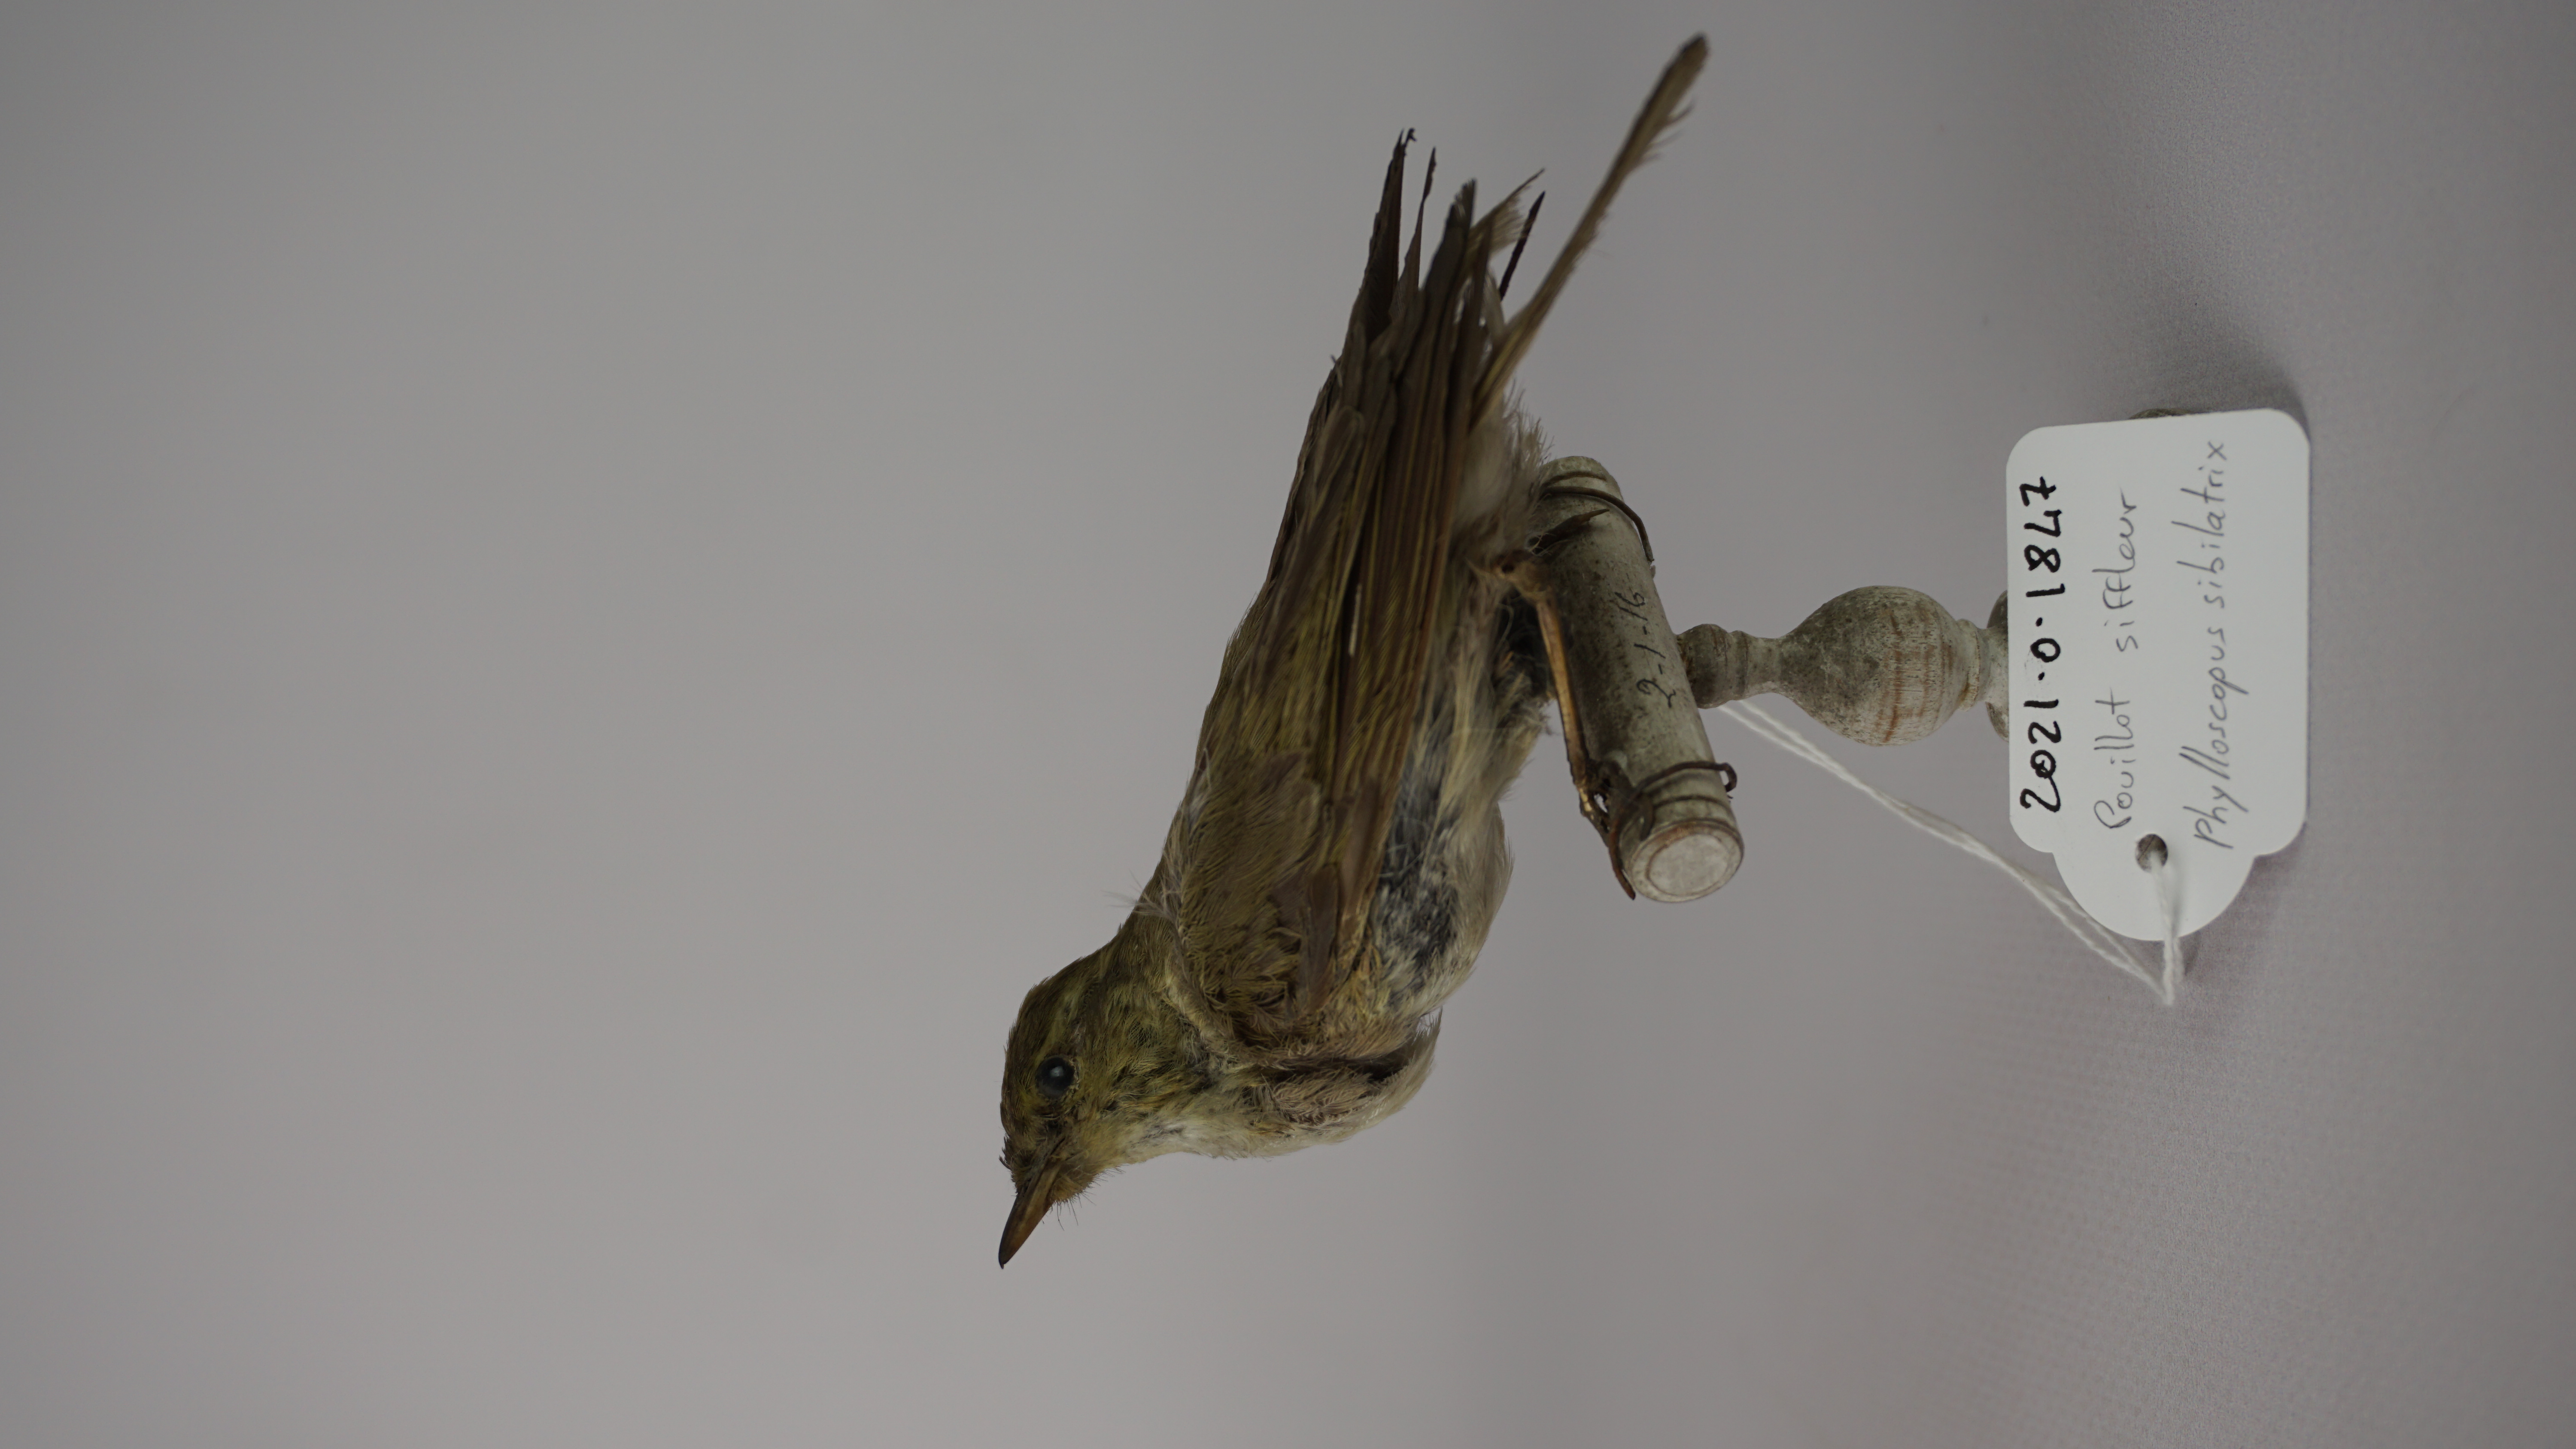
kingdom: Animalia
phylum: Chordata
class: Aves
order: Passeriformes
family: Phylloscopidae
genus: Phylloscopus
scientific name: Phylloscopus sibillatrix
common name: Wood warbler
